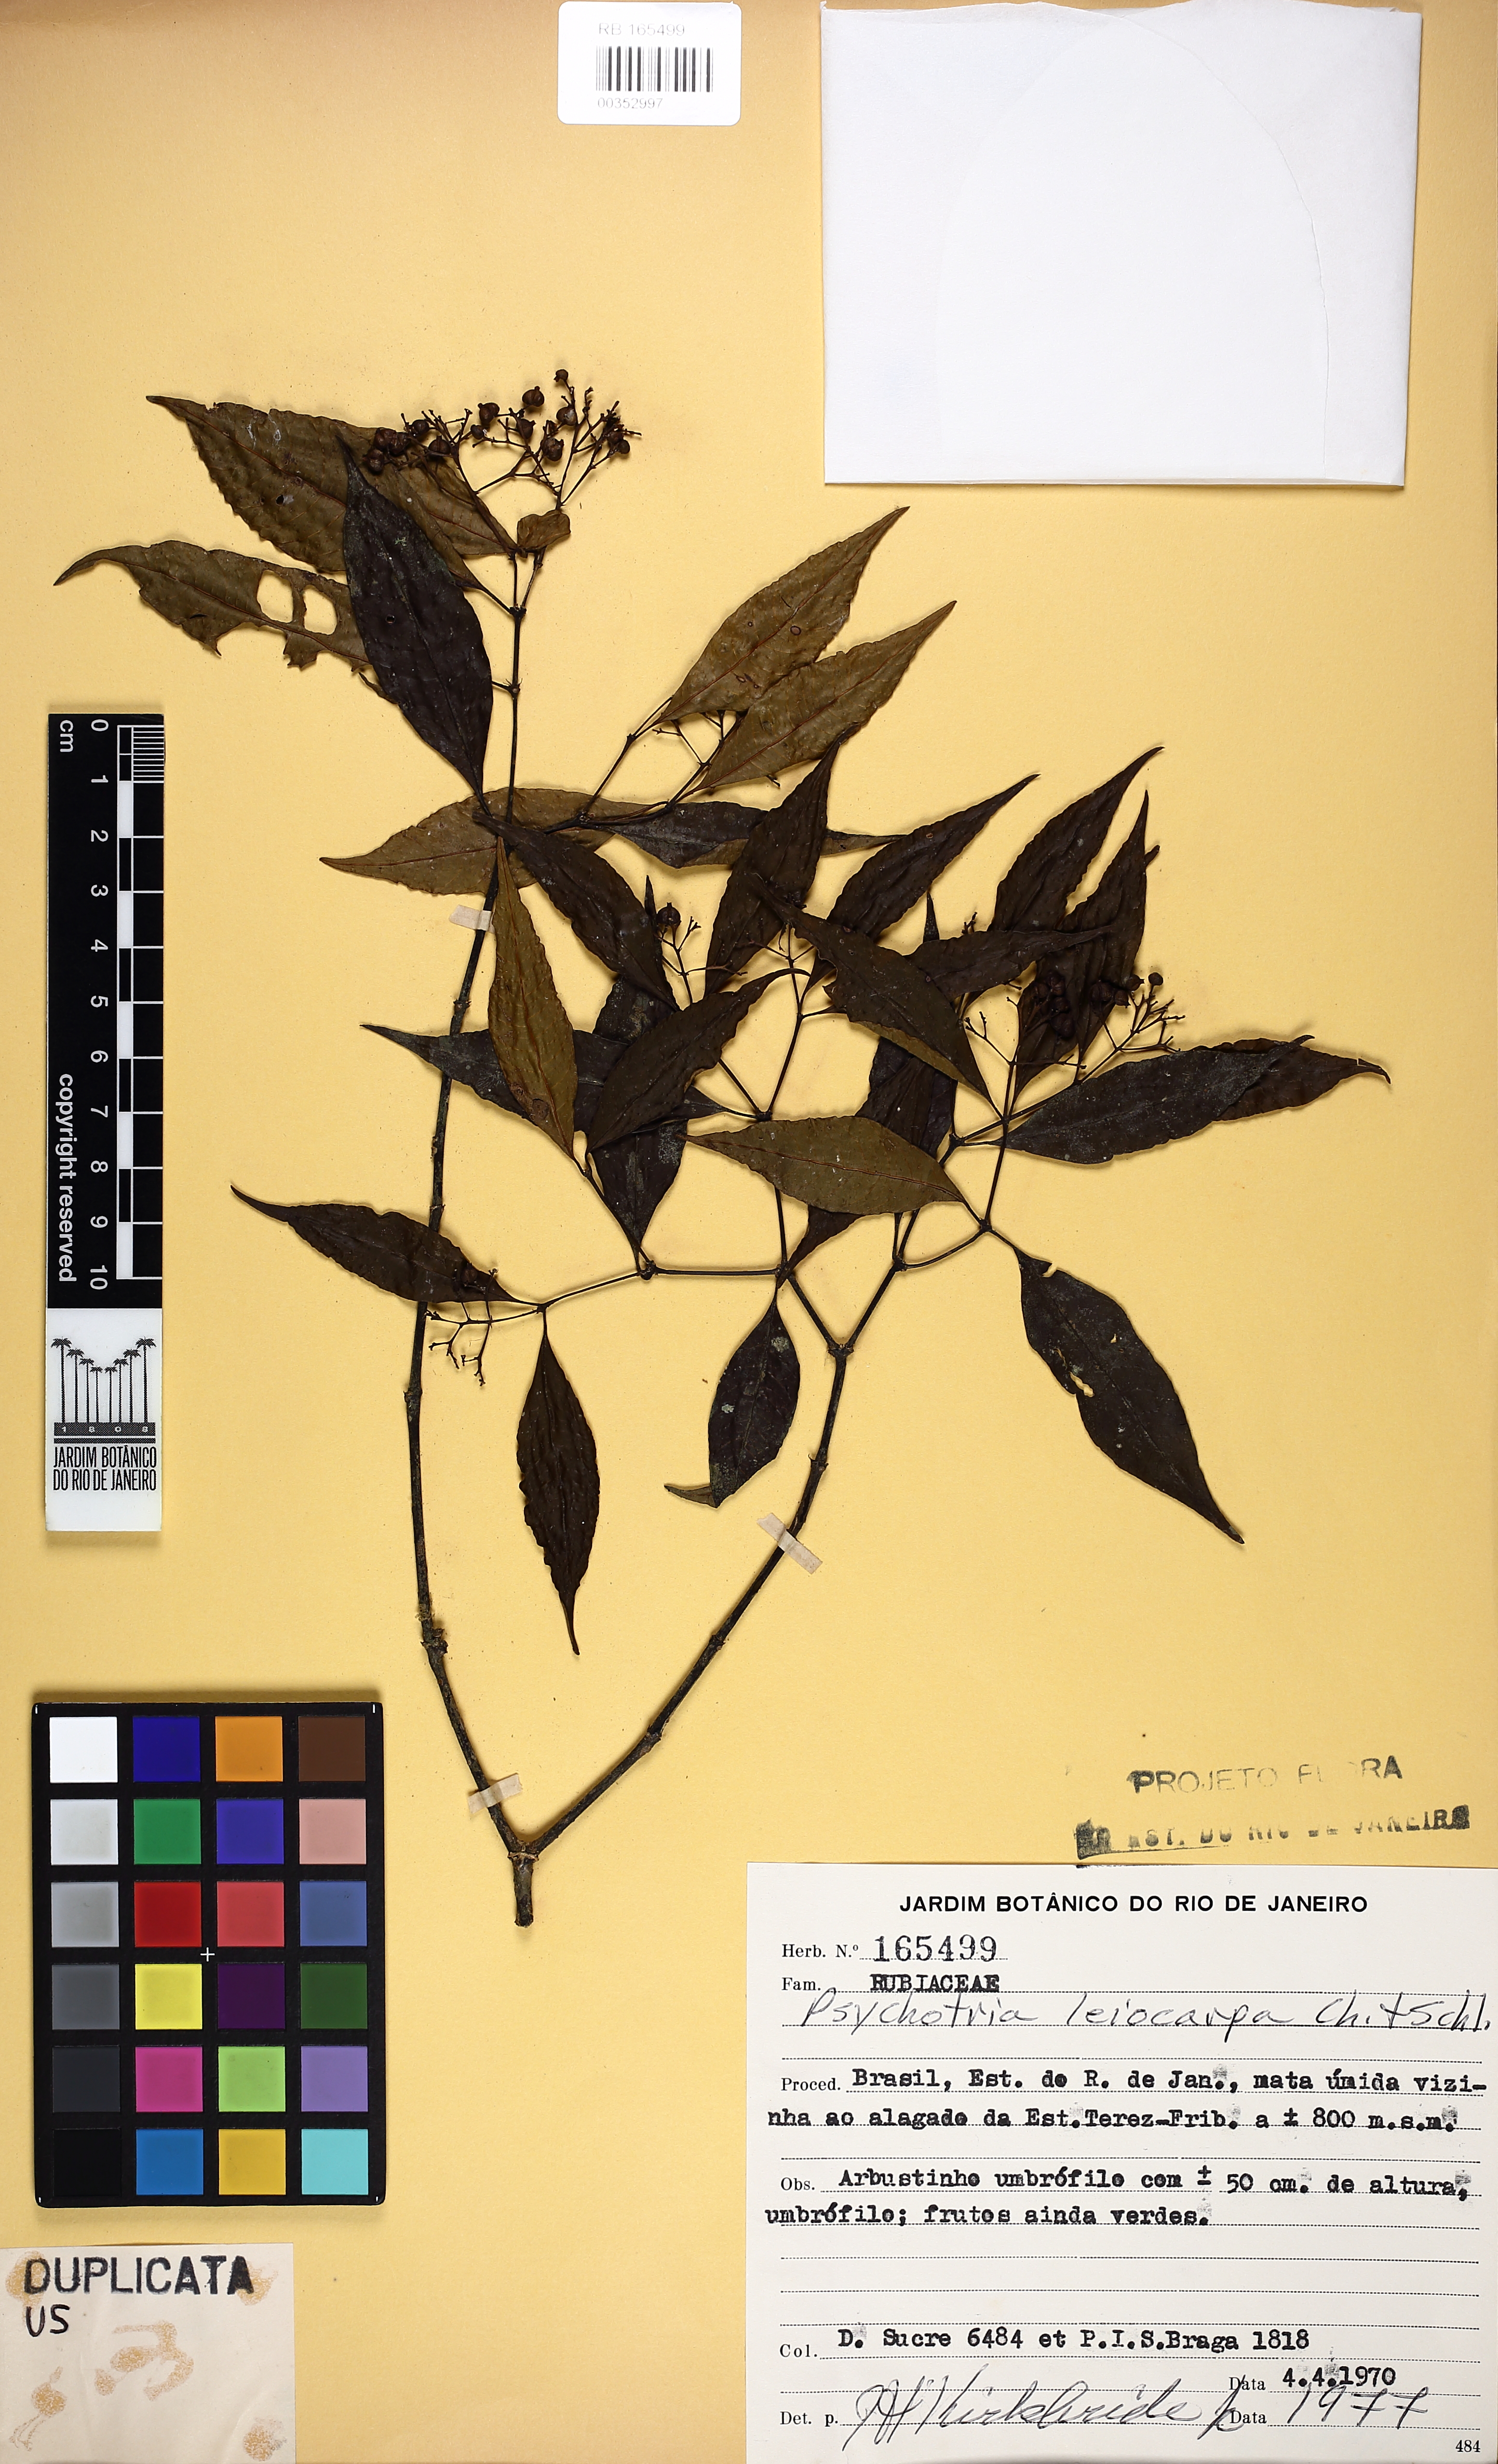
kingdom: Plantae
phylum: Tracheophyta
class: Magnoliopsida
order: Gentianales
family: Rubiaceae
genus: Psychotria
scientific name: Psychotria leiocarpa
